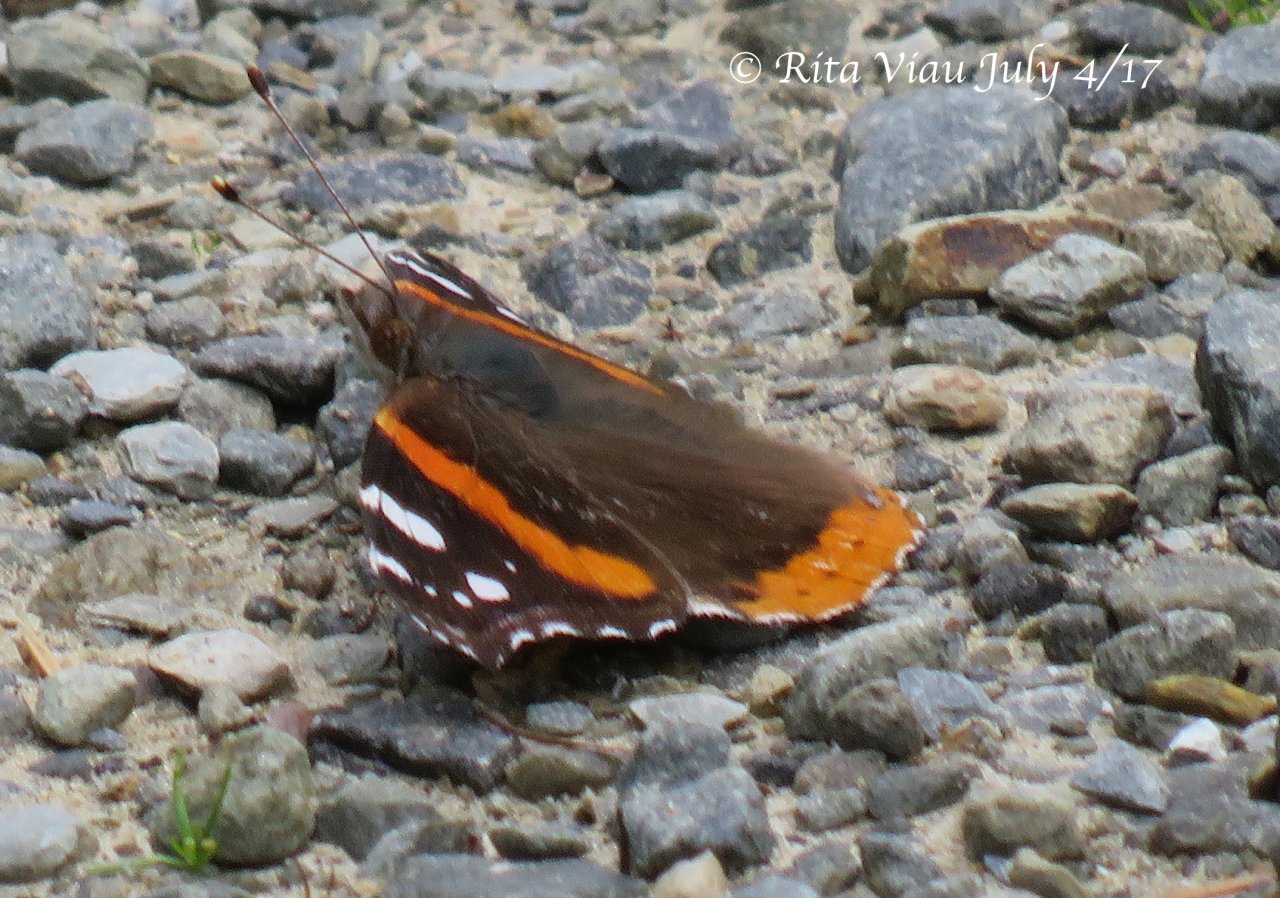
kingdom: Animalia
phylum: Arthropoda
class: Insecta
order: Lepidoptera
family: Nymphalidae
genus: Vanessa
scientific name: Vanessa atalanta
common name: Red Admiral
